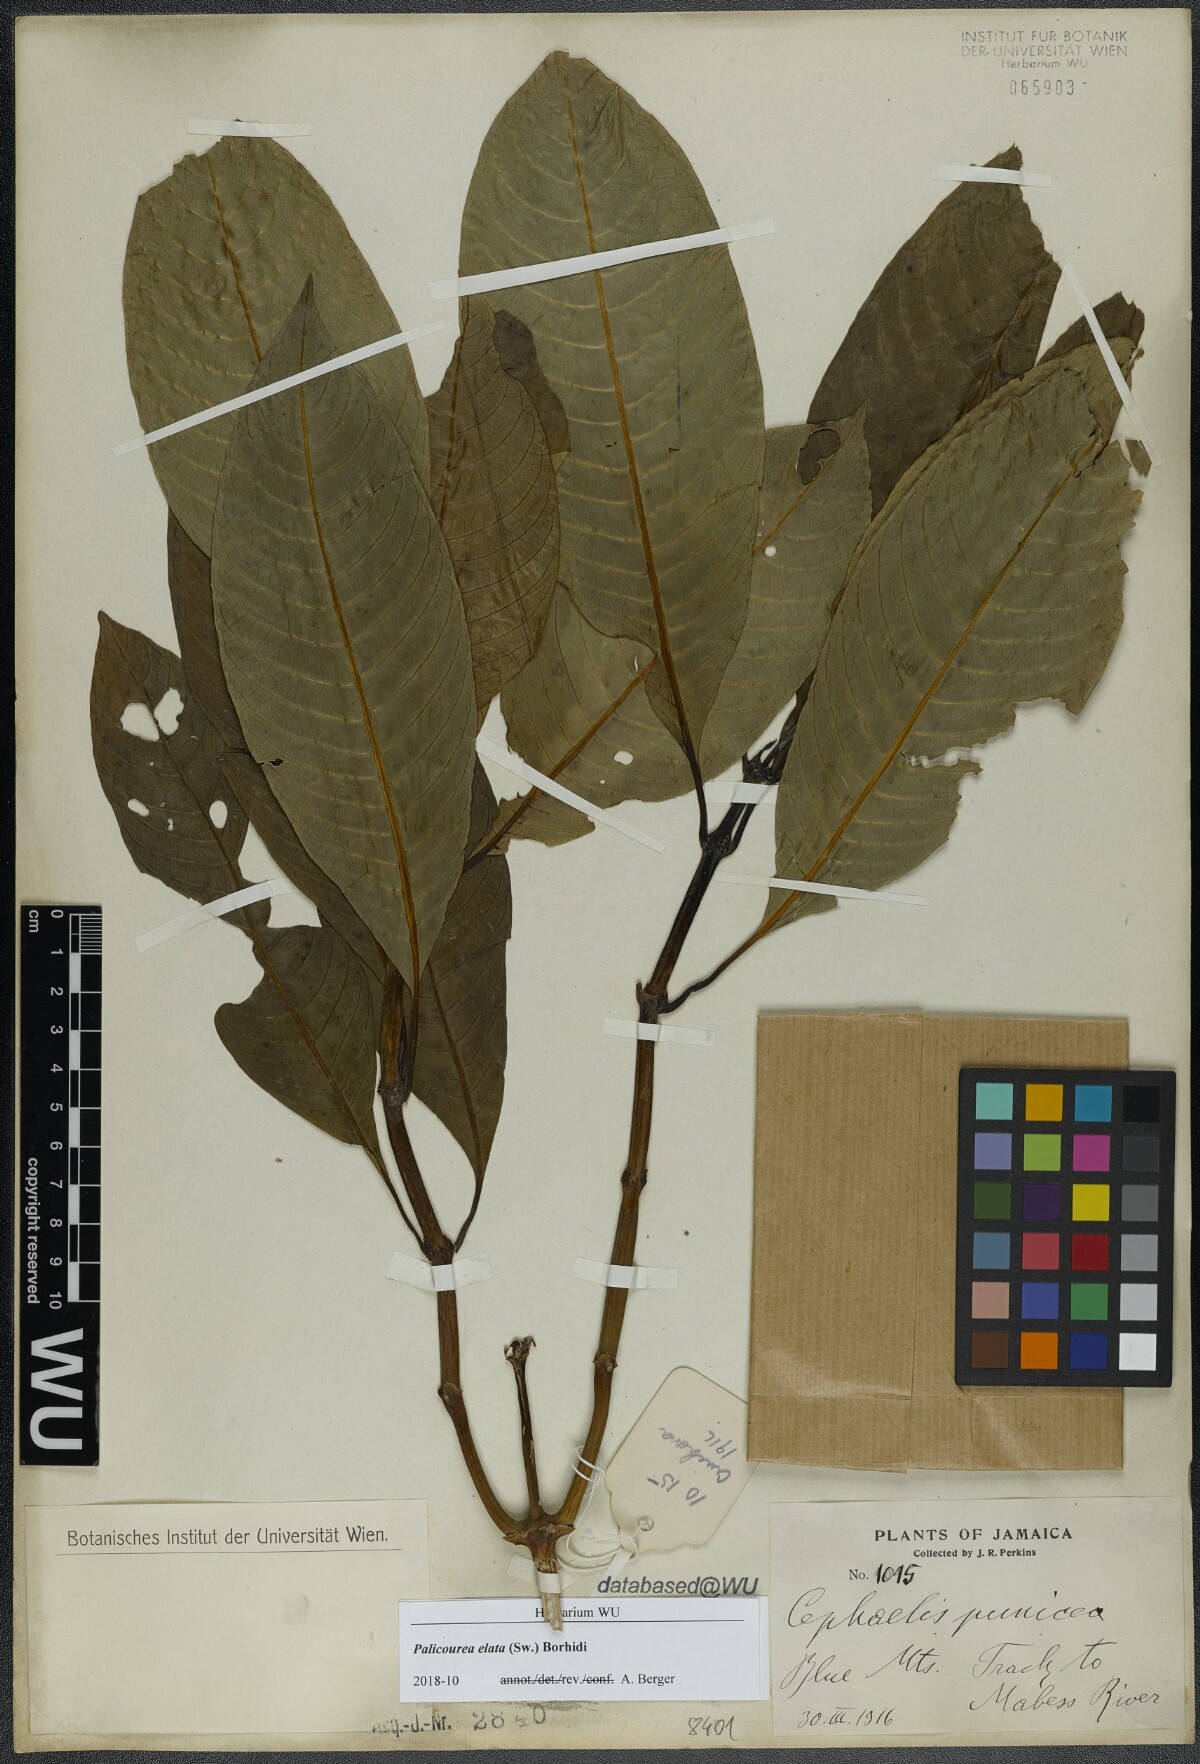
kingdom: Plantae
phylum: Tracheophyta
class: Magnoliopsida
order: Gentianales
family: Rubiaceae
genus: Palicourea
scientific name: Palicourea elata
